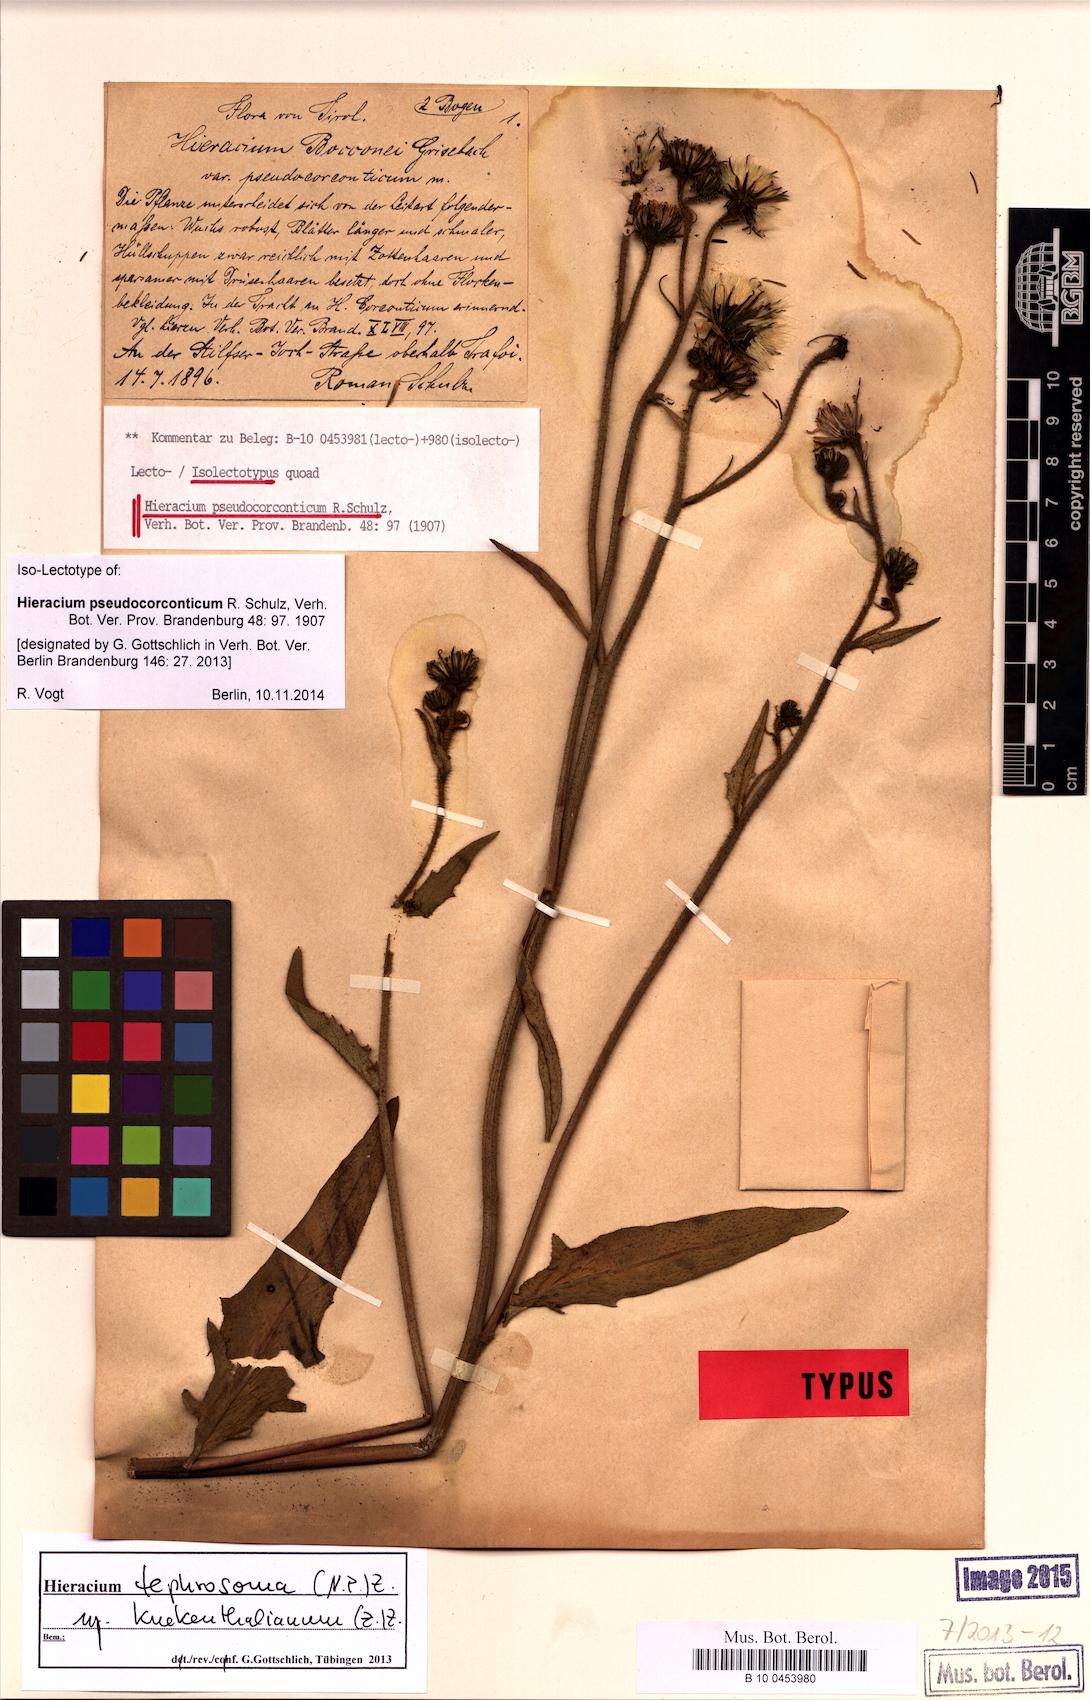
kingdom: Plantae
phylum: Tracheophyta
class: Magnoliopsida
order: Asterales
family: Asteraceae
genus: Hieracium
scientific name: Hieracium kuekenthalianum
